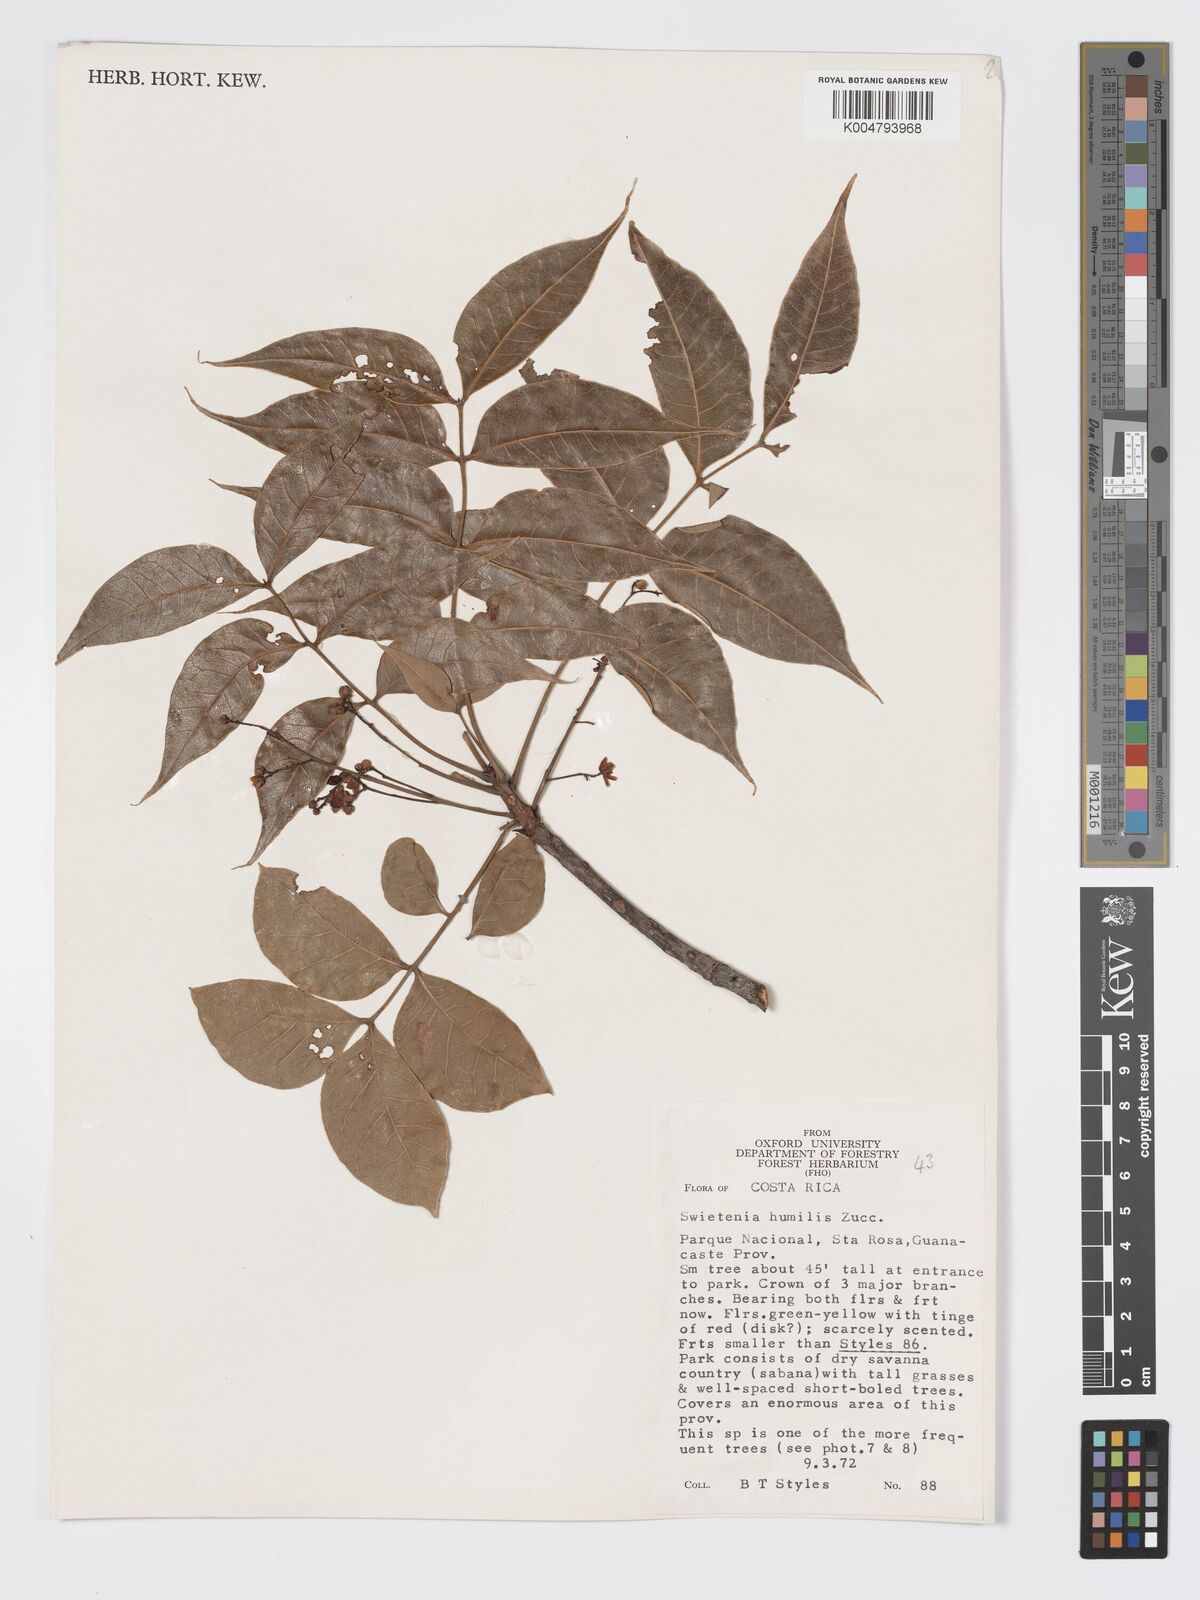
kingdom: Plantae
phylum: Tracheophyta
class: Magnoliopsida
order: Sapindales
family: Meliaceae
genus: Swietenia
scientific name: Swietenia humilis
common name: Pacific coast mahogany
